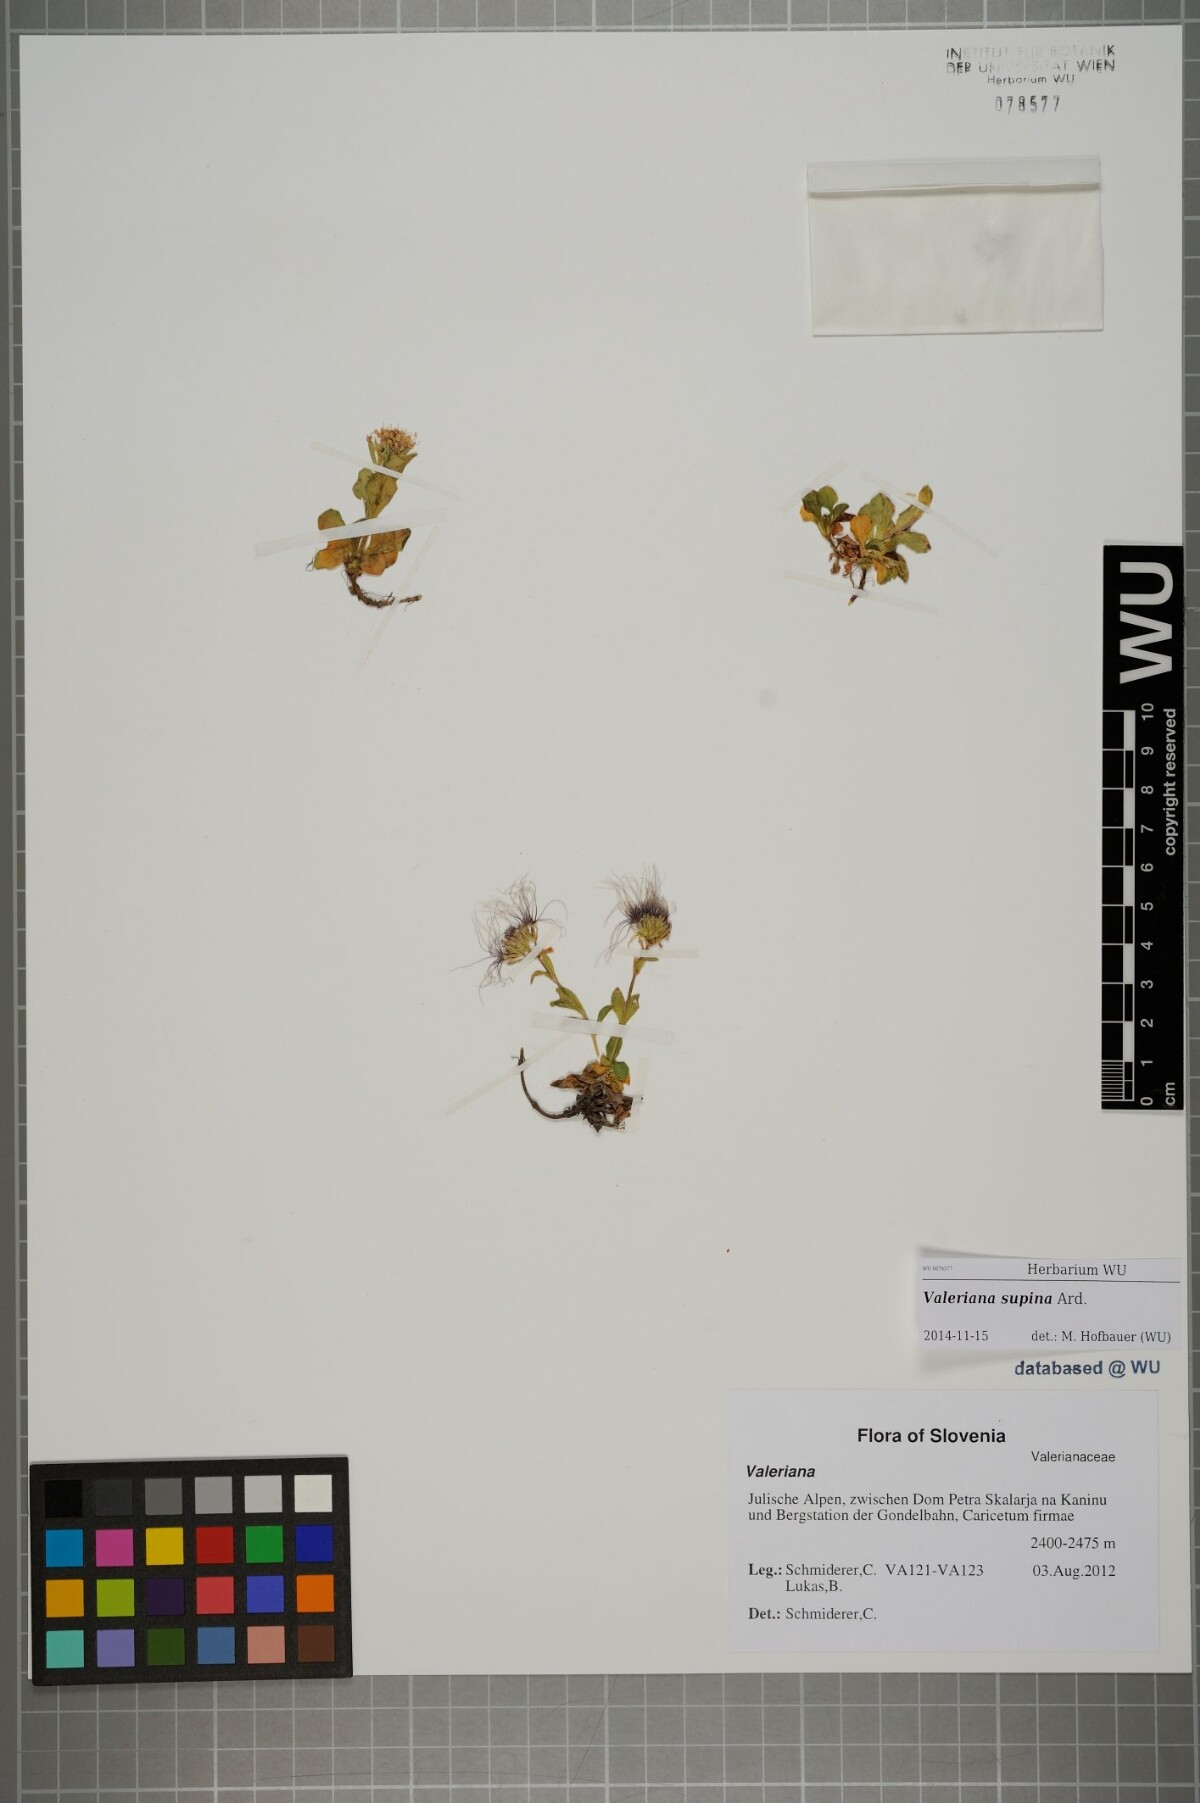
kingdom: Plantae
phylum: Tracheophyta
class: Magnoliopsida
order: Dipsacales
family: Caprifoliaceae
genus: Valeriana
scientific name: Valeriana supina
